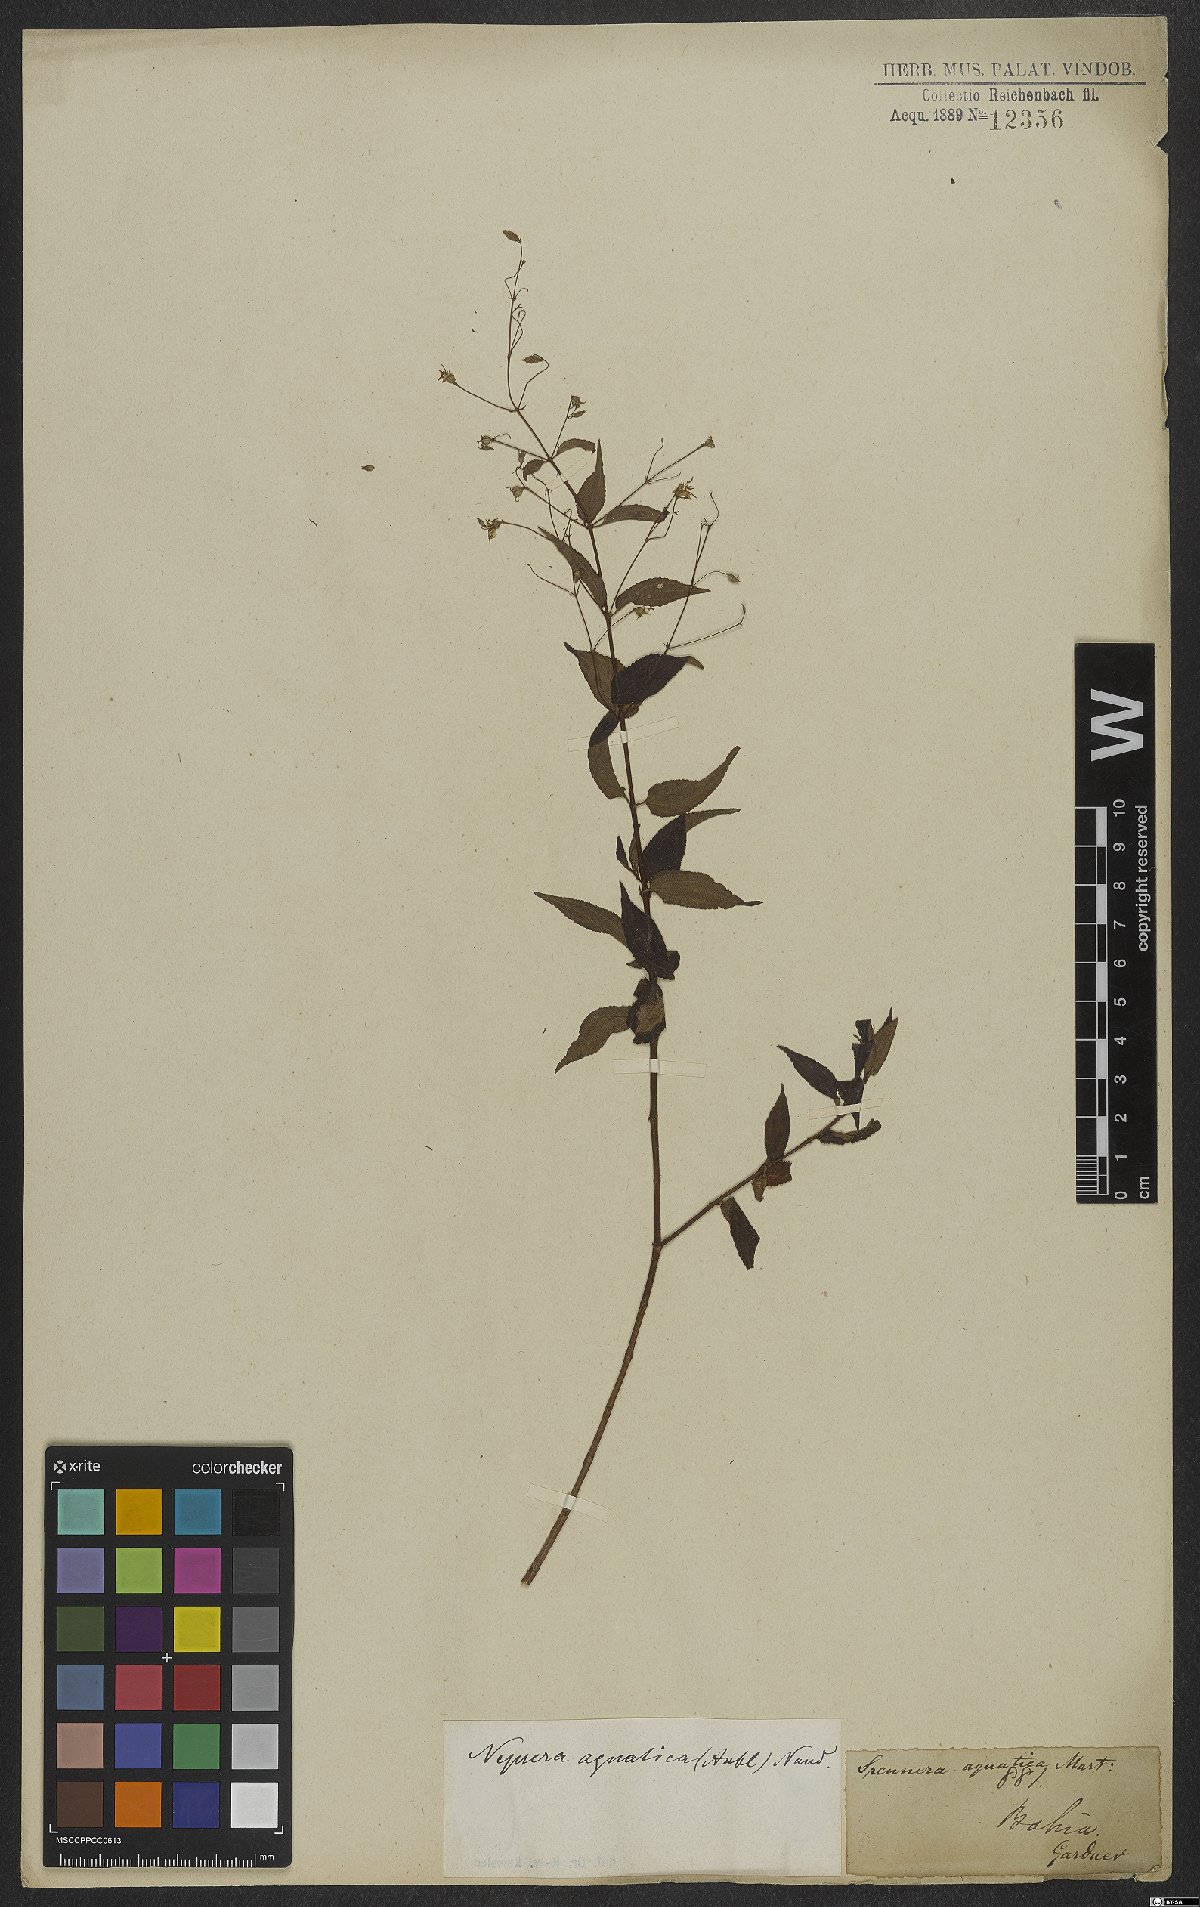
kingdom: Plantae
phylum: Tracheophyta
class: Magnoliopsida
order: Myrtales
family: Melastomataceae
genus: Nepsera
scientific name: Nepsera aquatica
